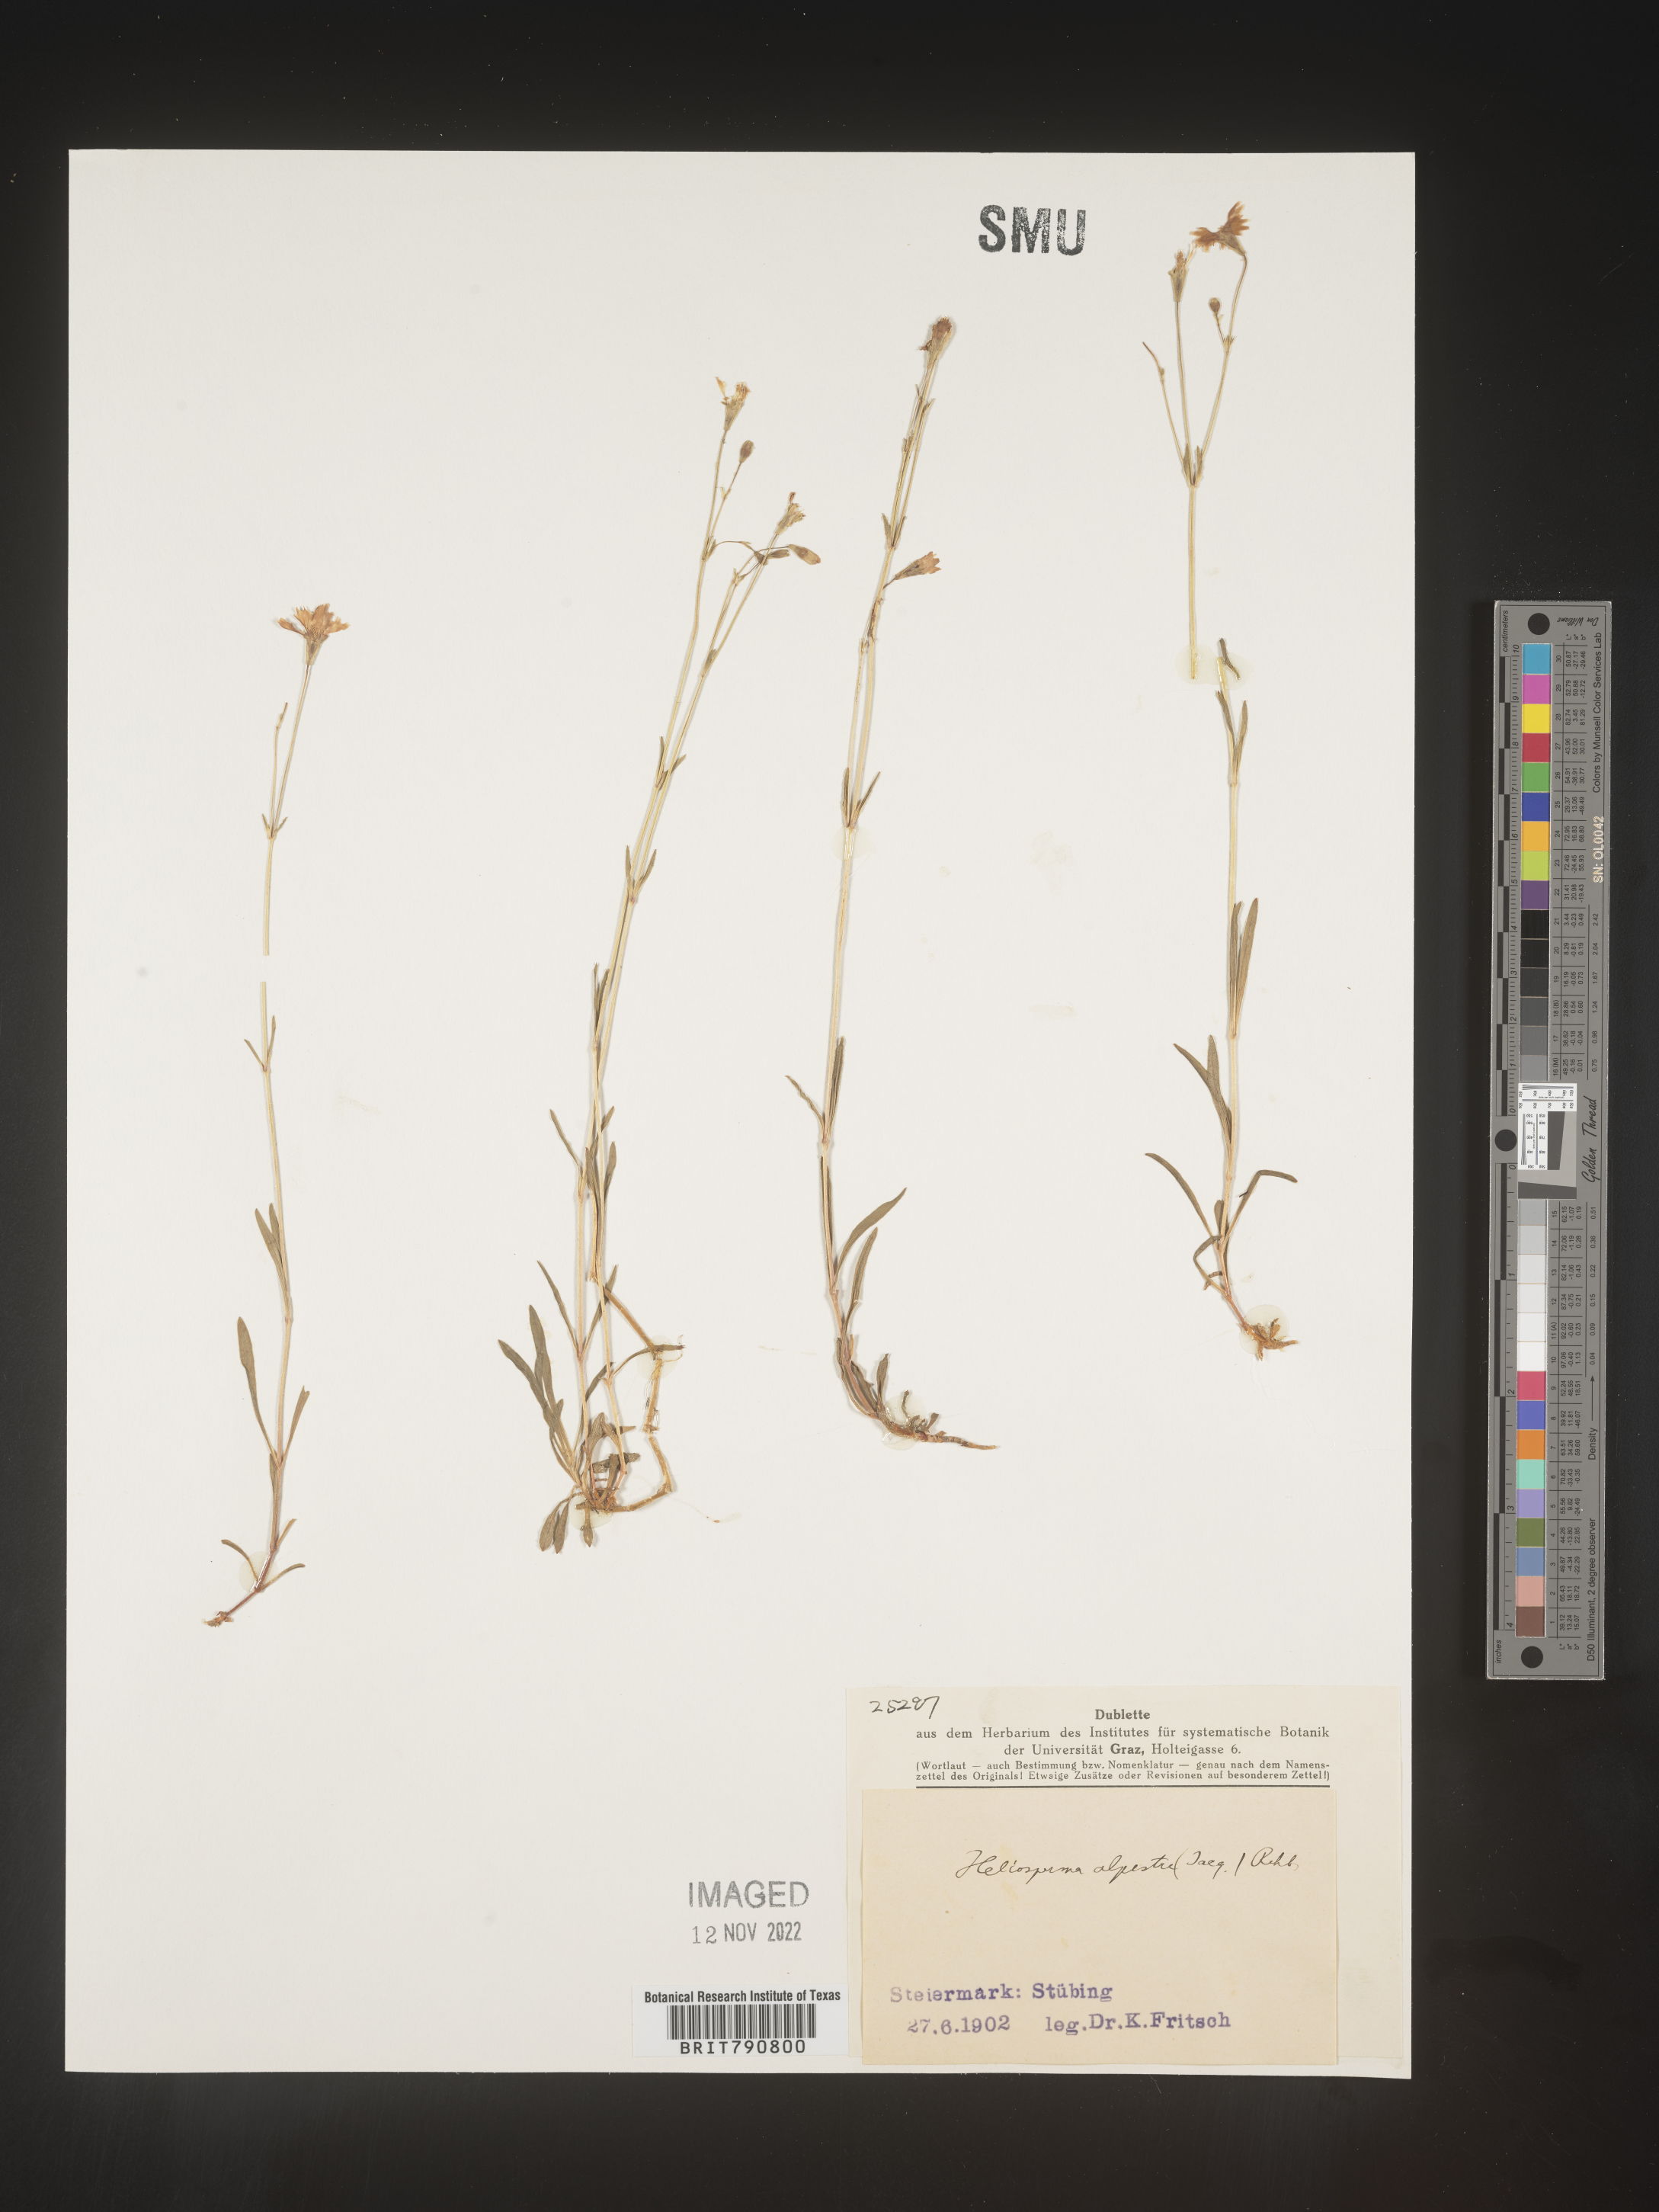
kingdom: Plantae
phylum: Tracheophyta
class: Magnoliopsida
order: Caryophyllales
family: Caryophyllaceae
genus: Heliosperma
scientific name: Heliosperma
